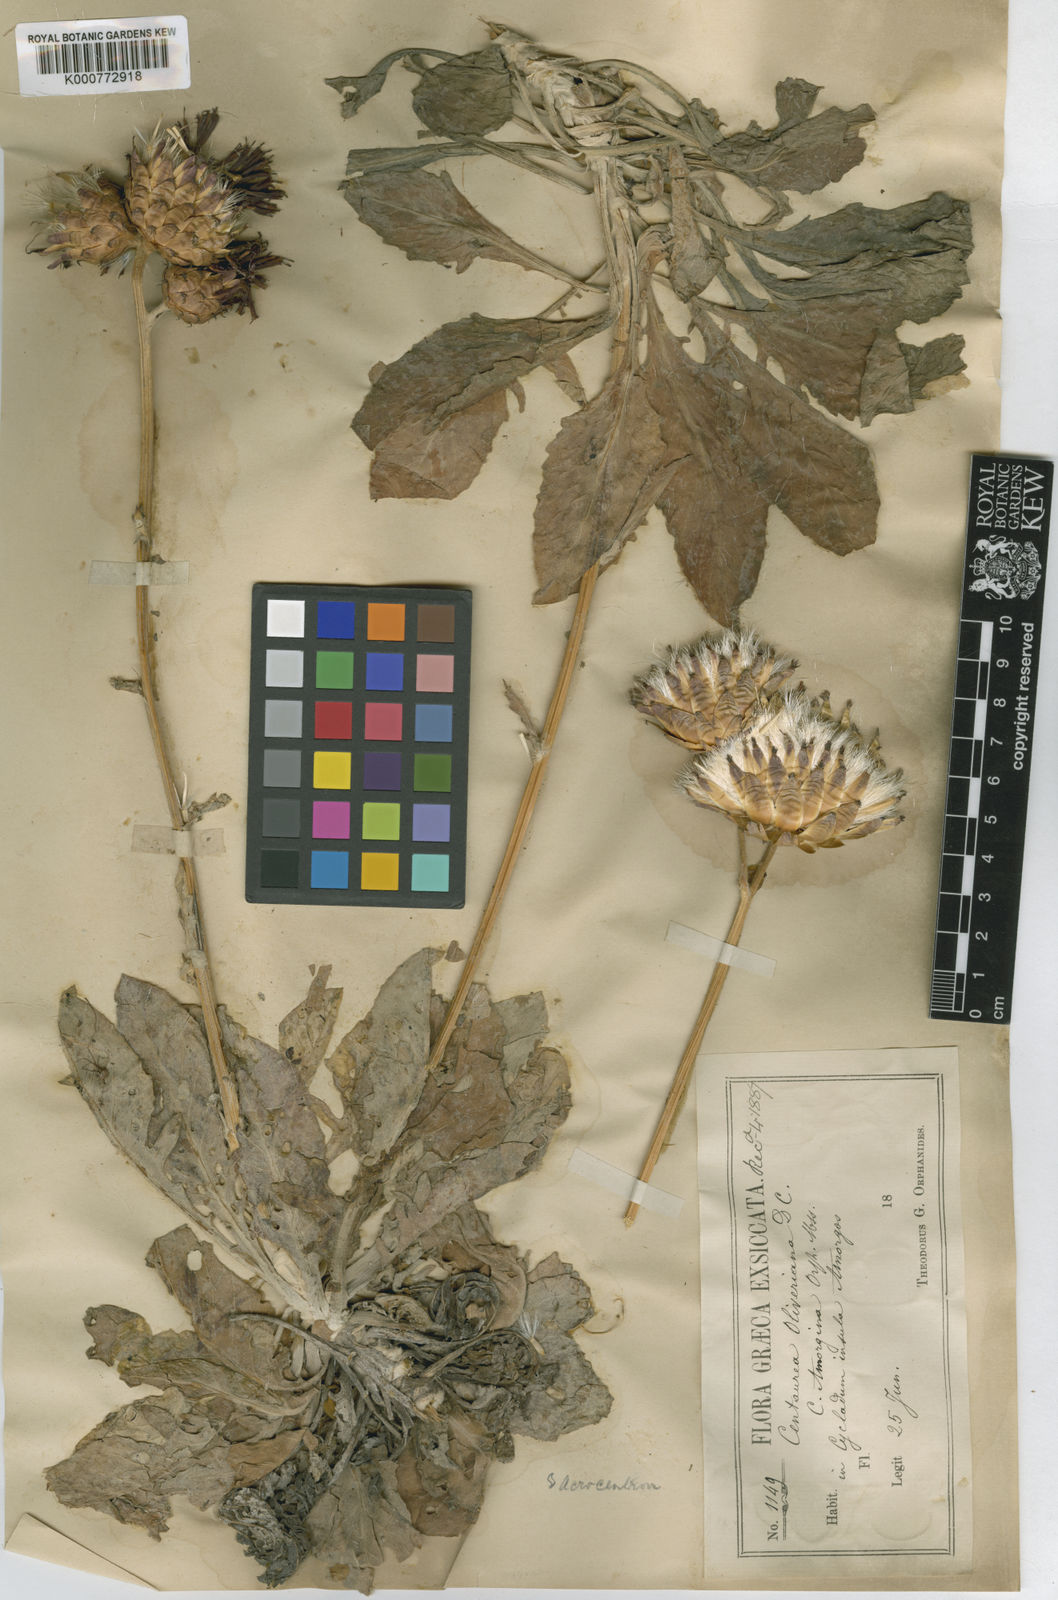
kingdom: Plantae
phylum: Tracheophyta
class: Magnoliopsida
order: Asterales
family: Asteraceae
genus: Centaurea
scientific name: Centaurea
